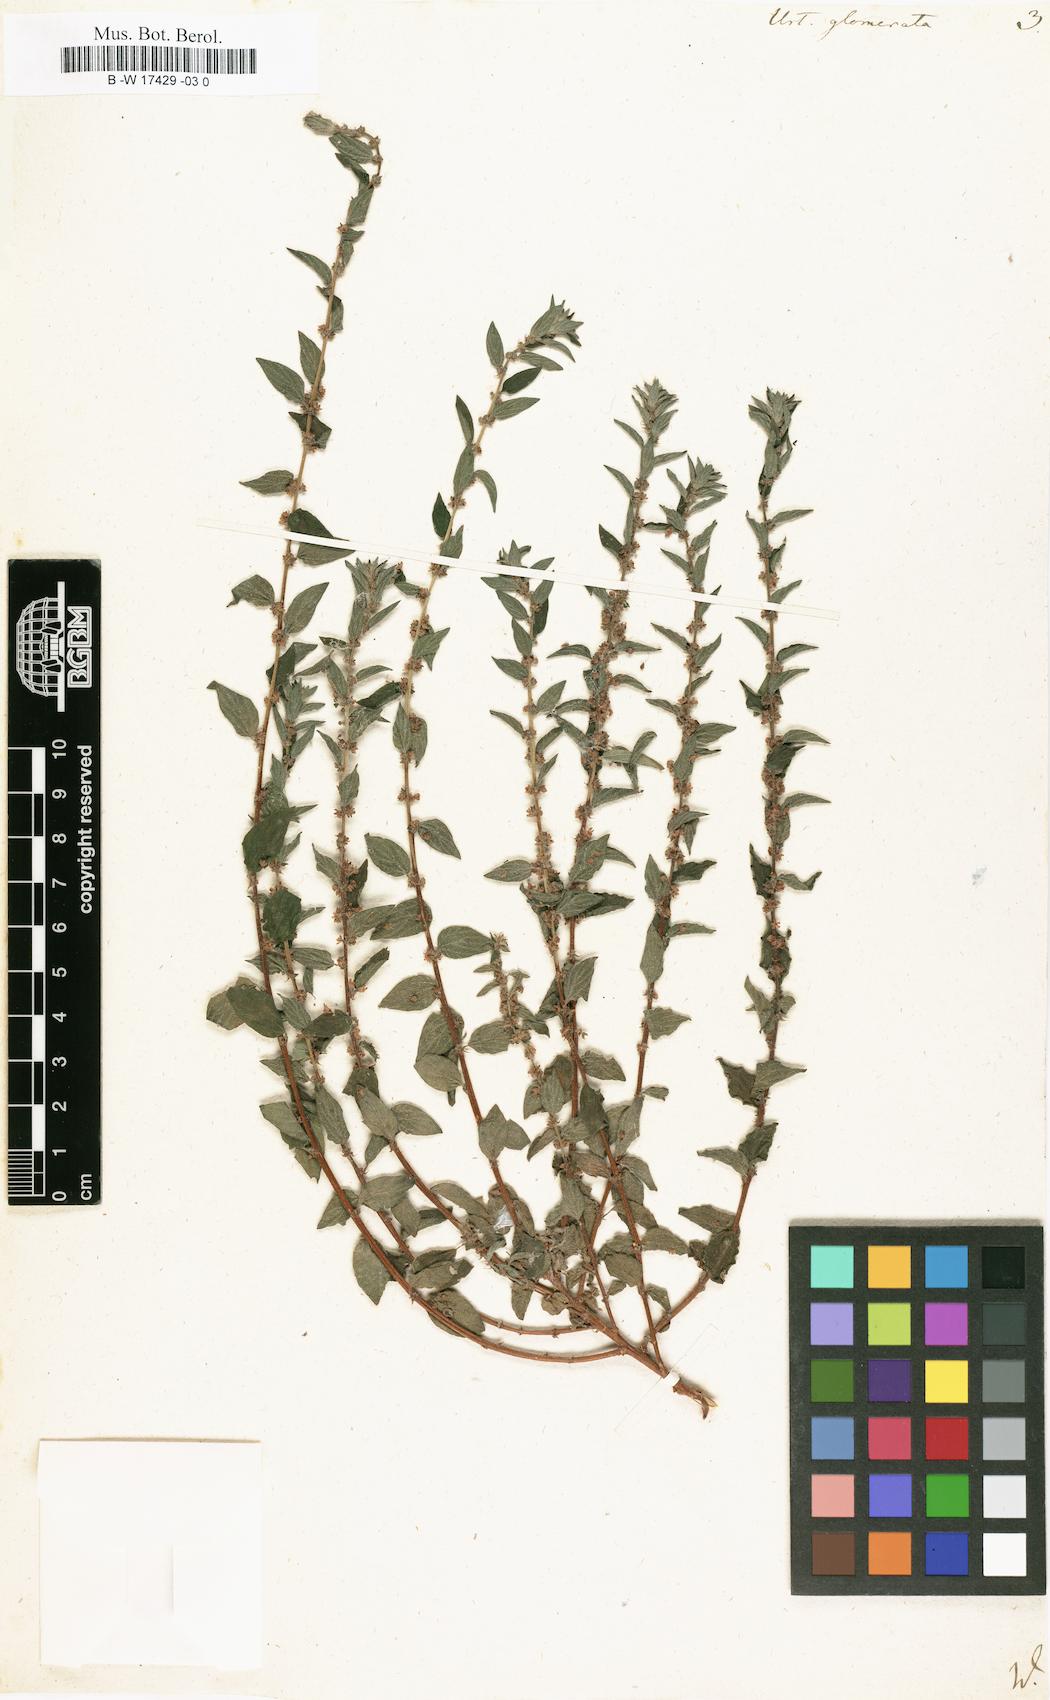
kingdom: Plantae
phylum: Tracheophyta
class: Magnoliopsida
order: Rosales
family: Urticaceae
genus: Pouzolzia
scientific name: Pouzolzia zeylanica
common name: Graceful pouzolzsbush
